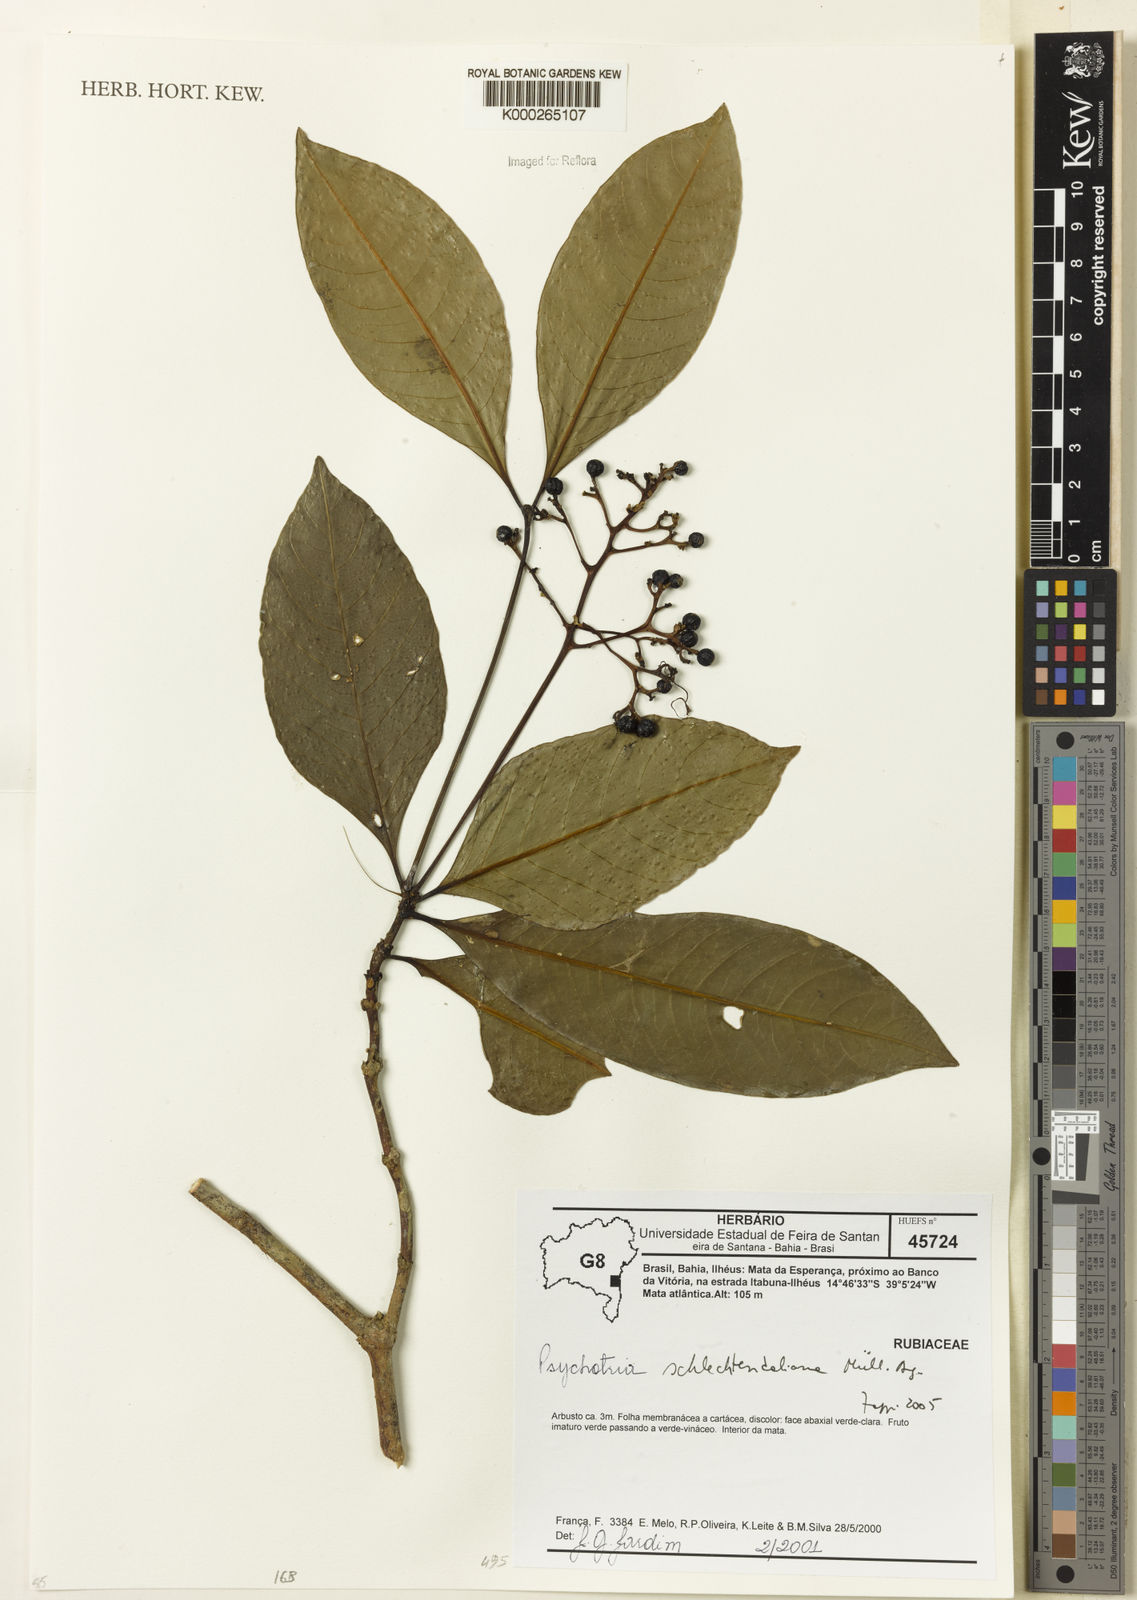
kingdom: Plantae
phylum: Tracheophyta
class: Magnoliopsida
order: Gentianales
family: Rubiaceae
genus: Psychotria
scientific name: Psychotria
